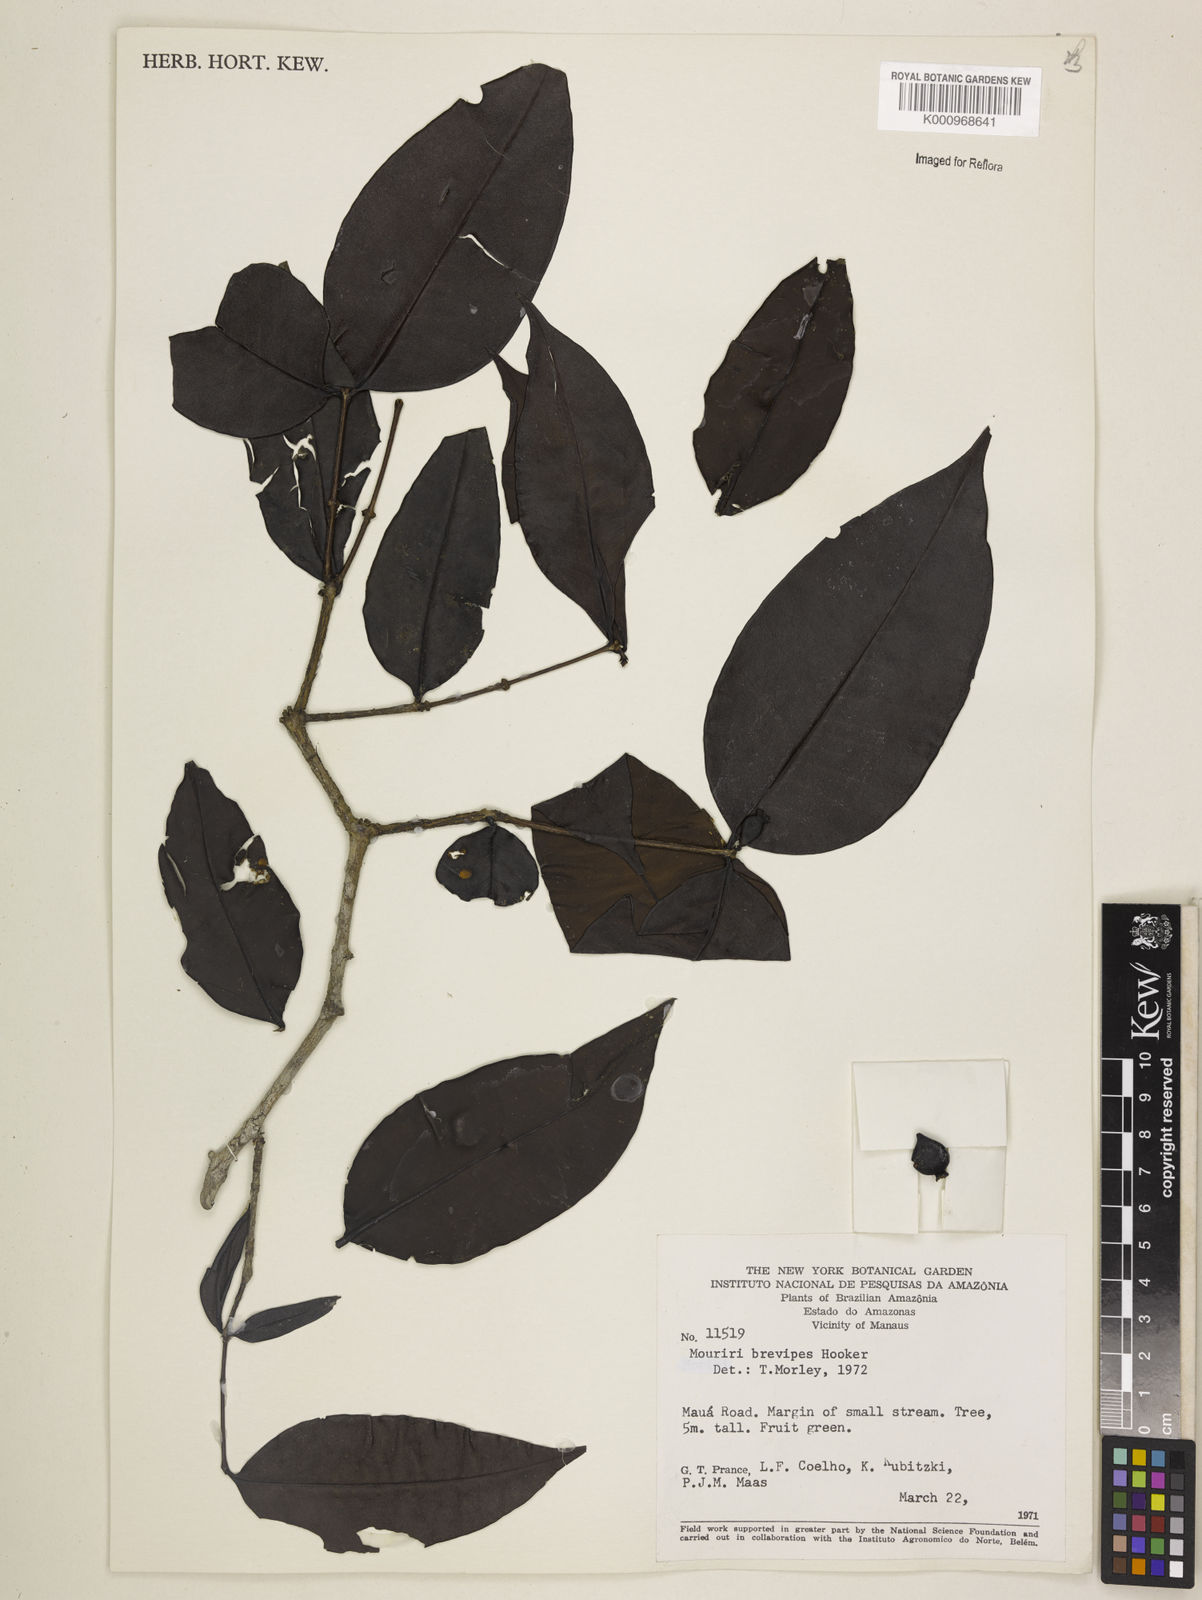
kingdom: Plantae
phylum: Tracheophyta
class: Magnoliopsida
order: Myrtales
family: Melastomataceae
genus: Mouriri
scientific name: Mouriri
